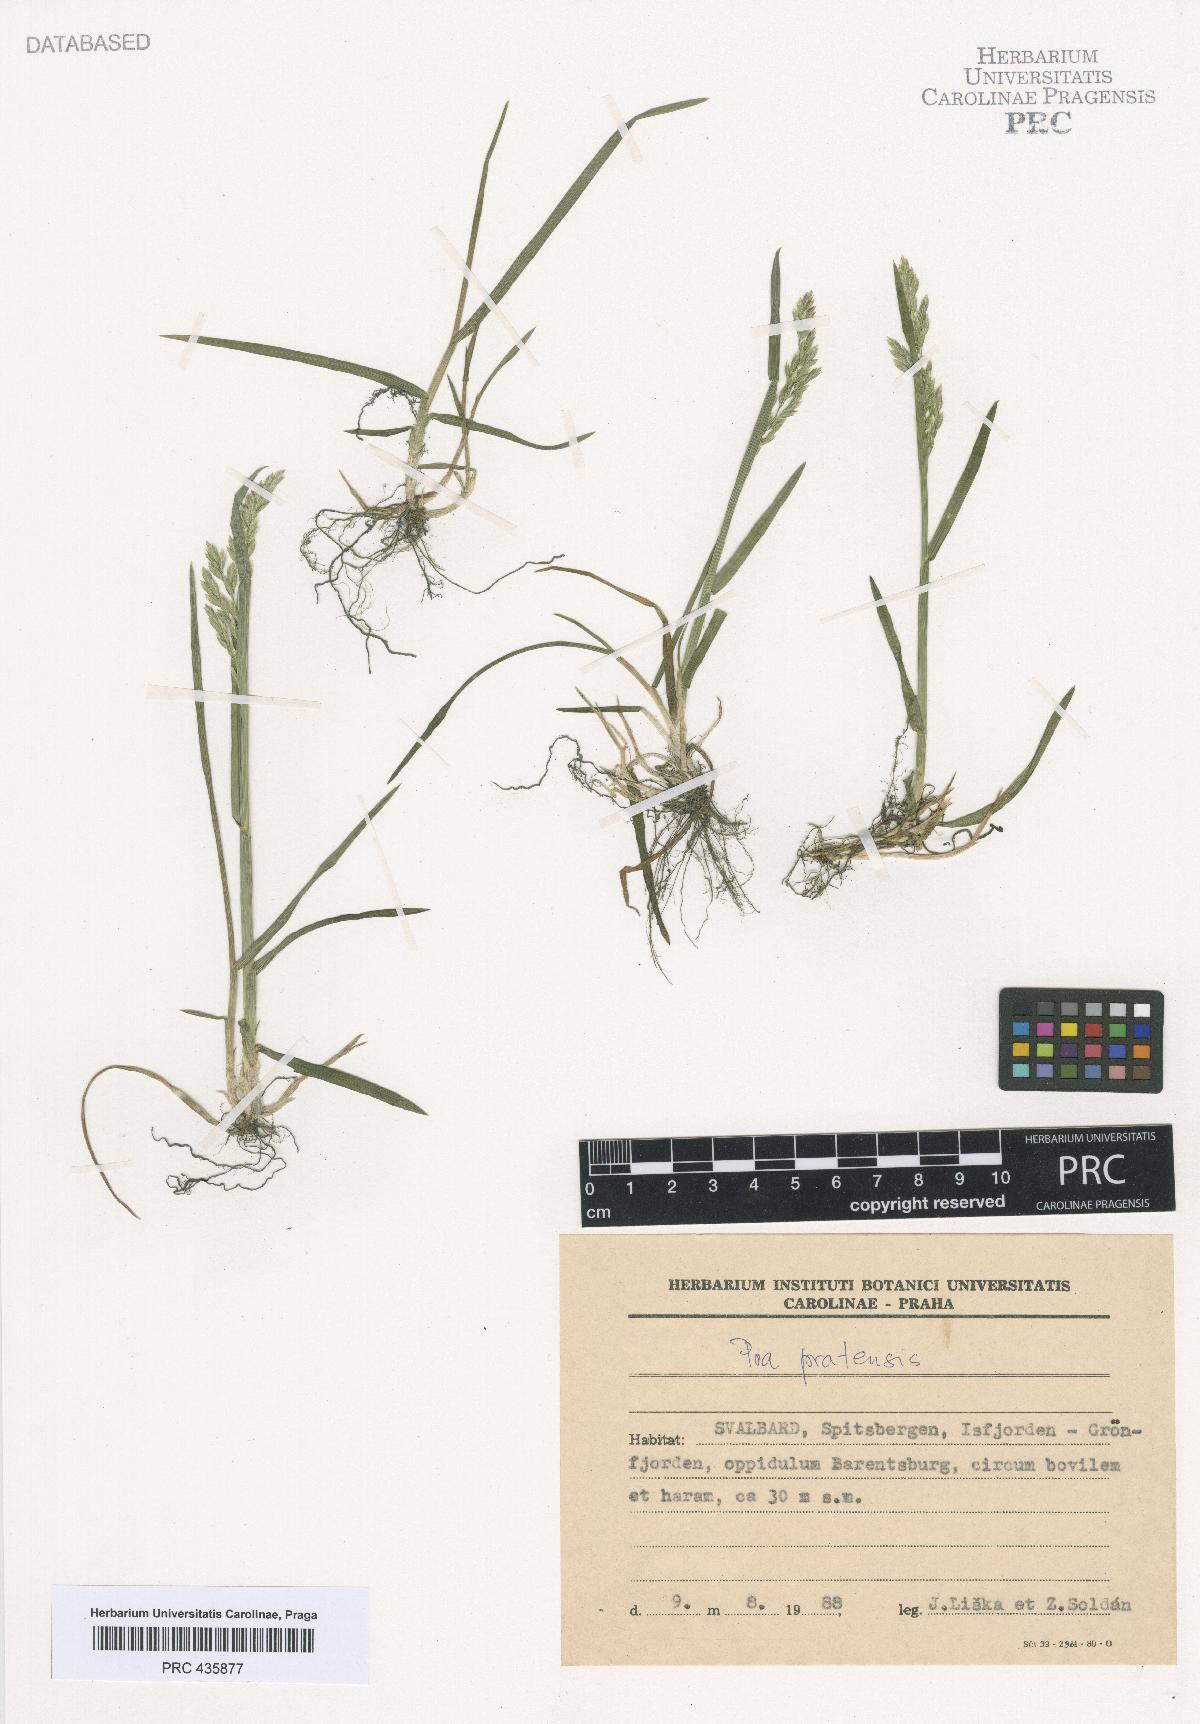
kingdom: Plantae
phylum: Tracheophyta
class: Liliopsida
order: Poales
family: Poaceae
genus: Poa
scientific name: Poa pratensis
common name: Kentucky bluegrass
